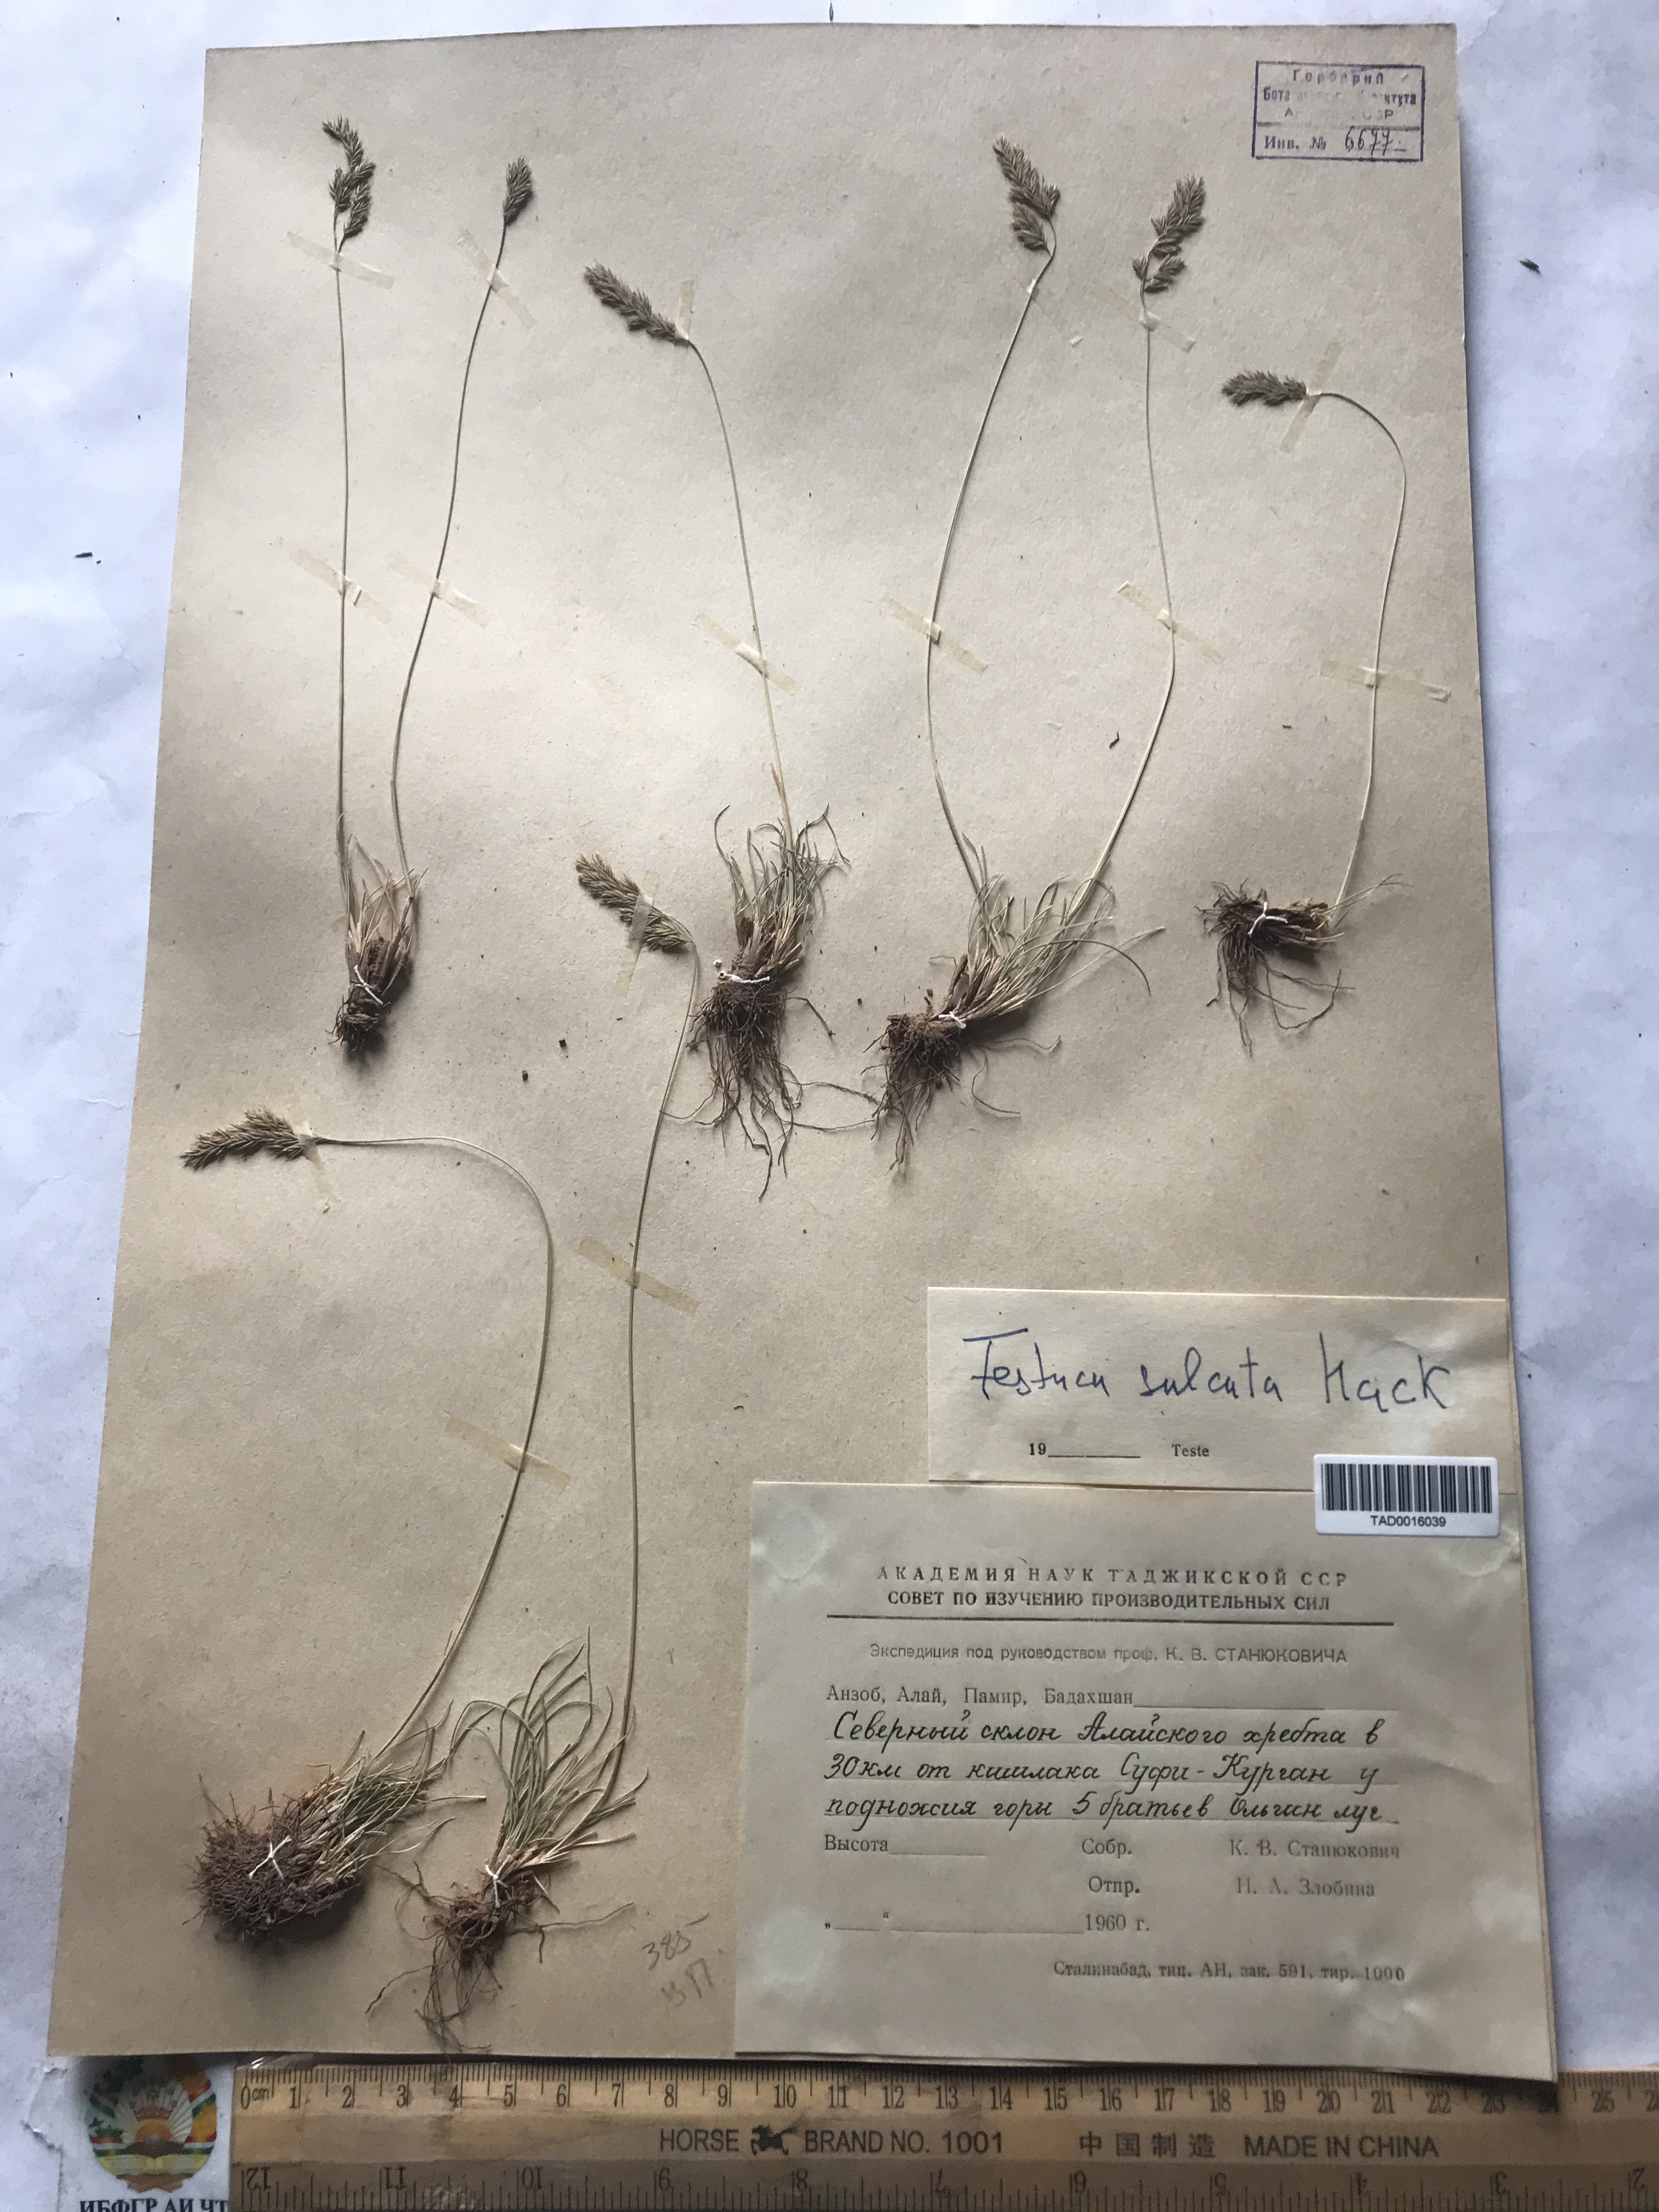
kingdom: Plantae
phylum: Tracheophyta
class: Liliopsida
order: Poales
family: Poaceae
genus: Festuca
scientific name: Festuca sulcata
